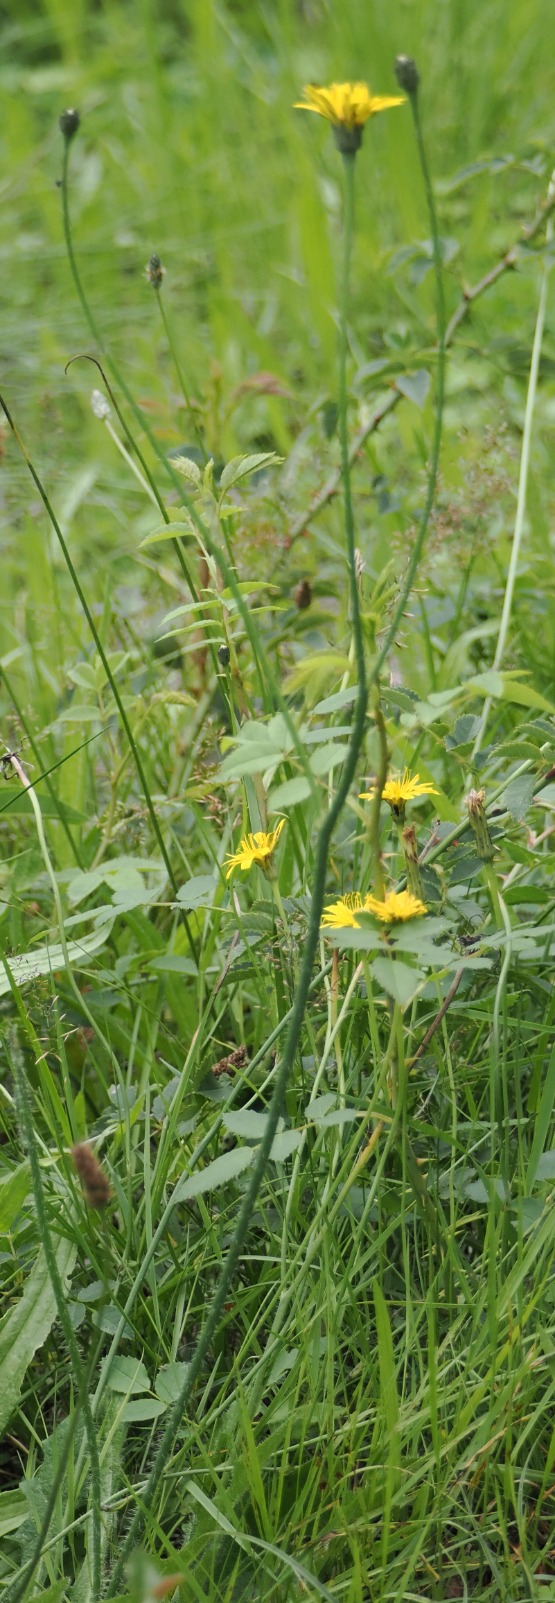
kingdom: Plantae
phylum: Tracheophyta
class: Magnoliopsida
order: Asterales
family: Asteraceae
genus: Hypochaeris
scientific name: Hypochaeris radicata
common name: Almindelig kongepen
